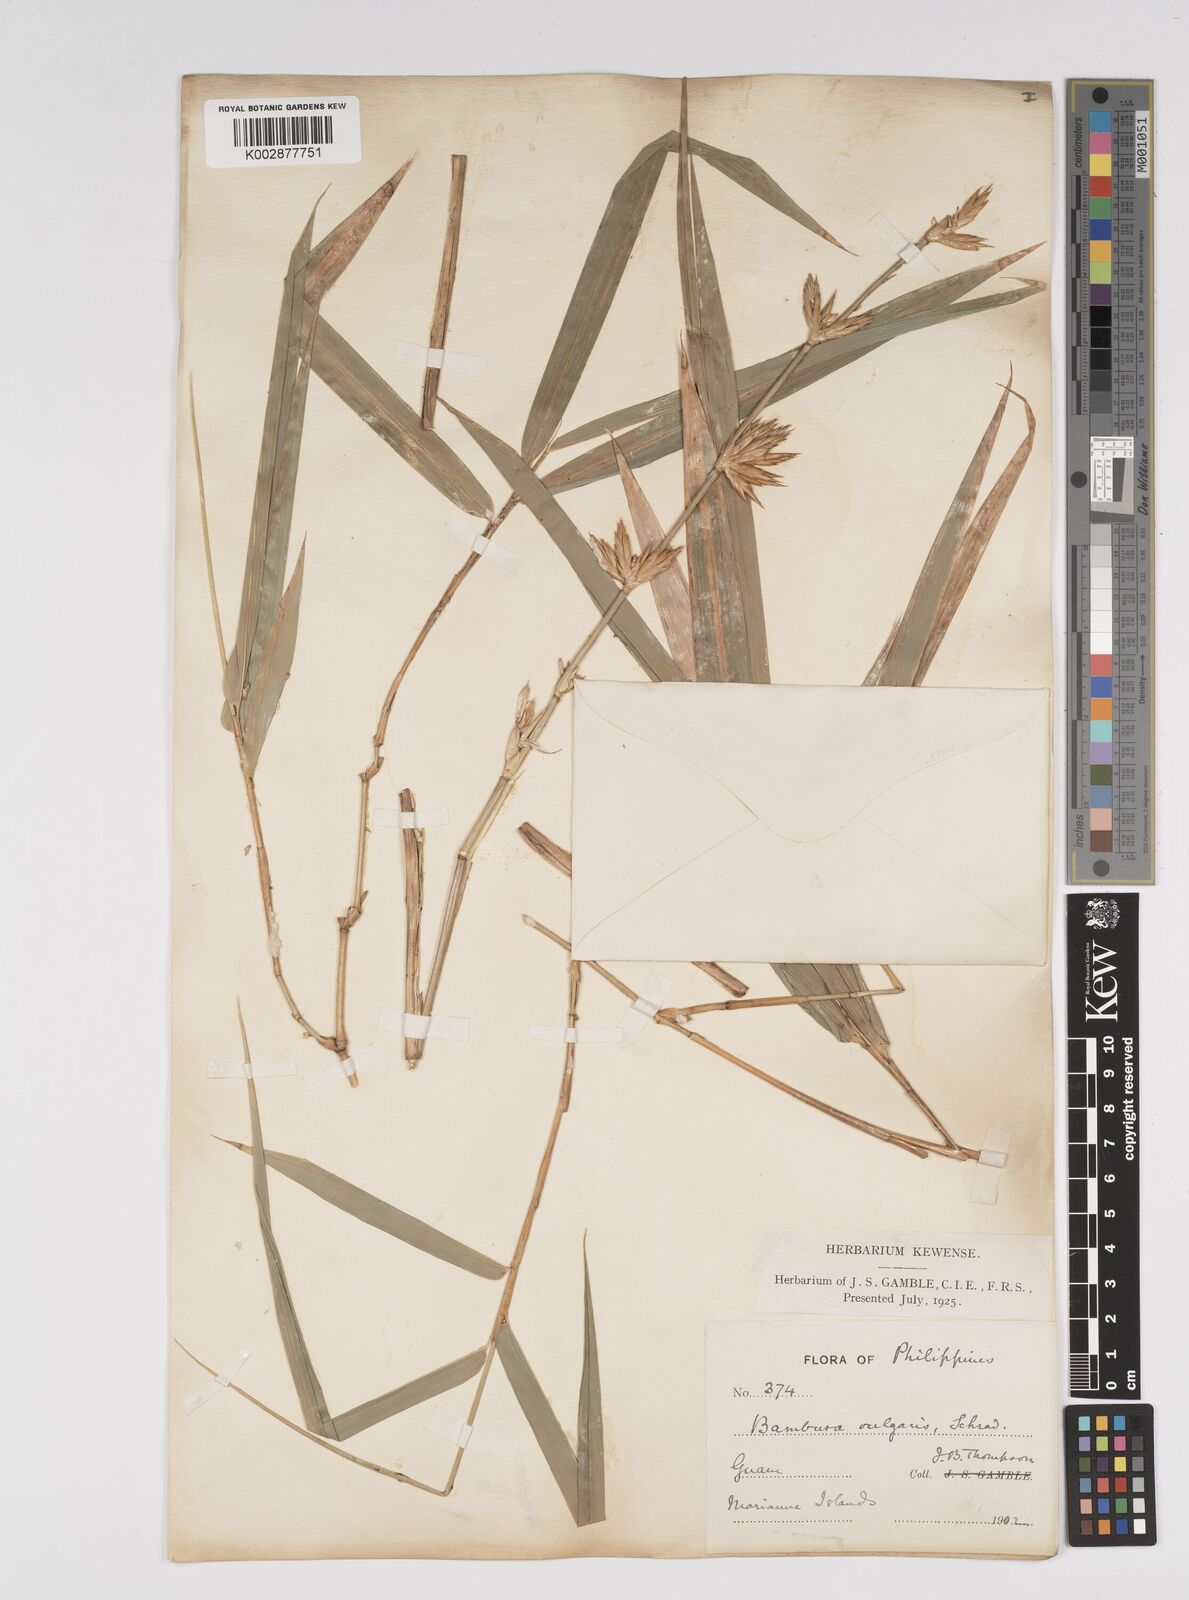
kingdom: Plantae
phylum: Tracheophyta
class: Liliopsida
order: Poales
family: Poaceae
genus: Bambusa
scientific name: Bambusa vulgaris
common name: Common bamboo
